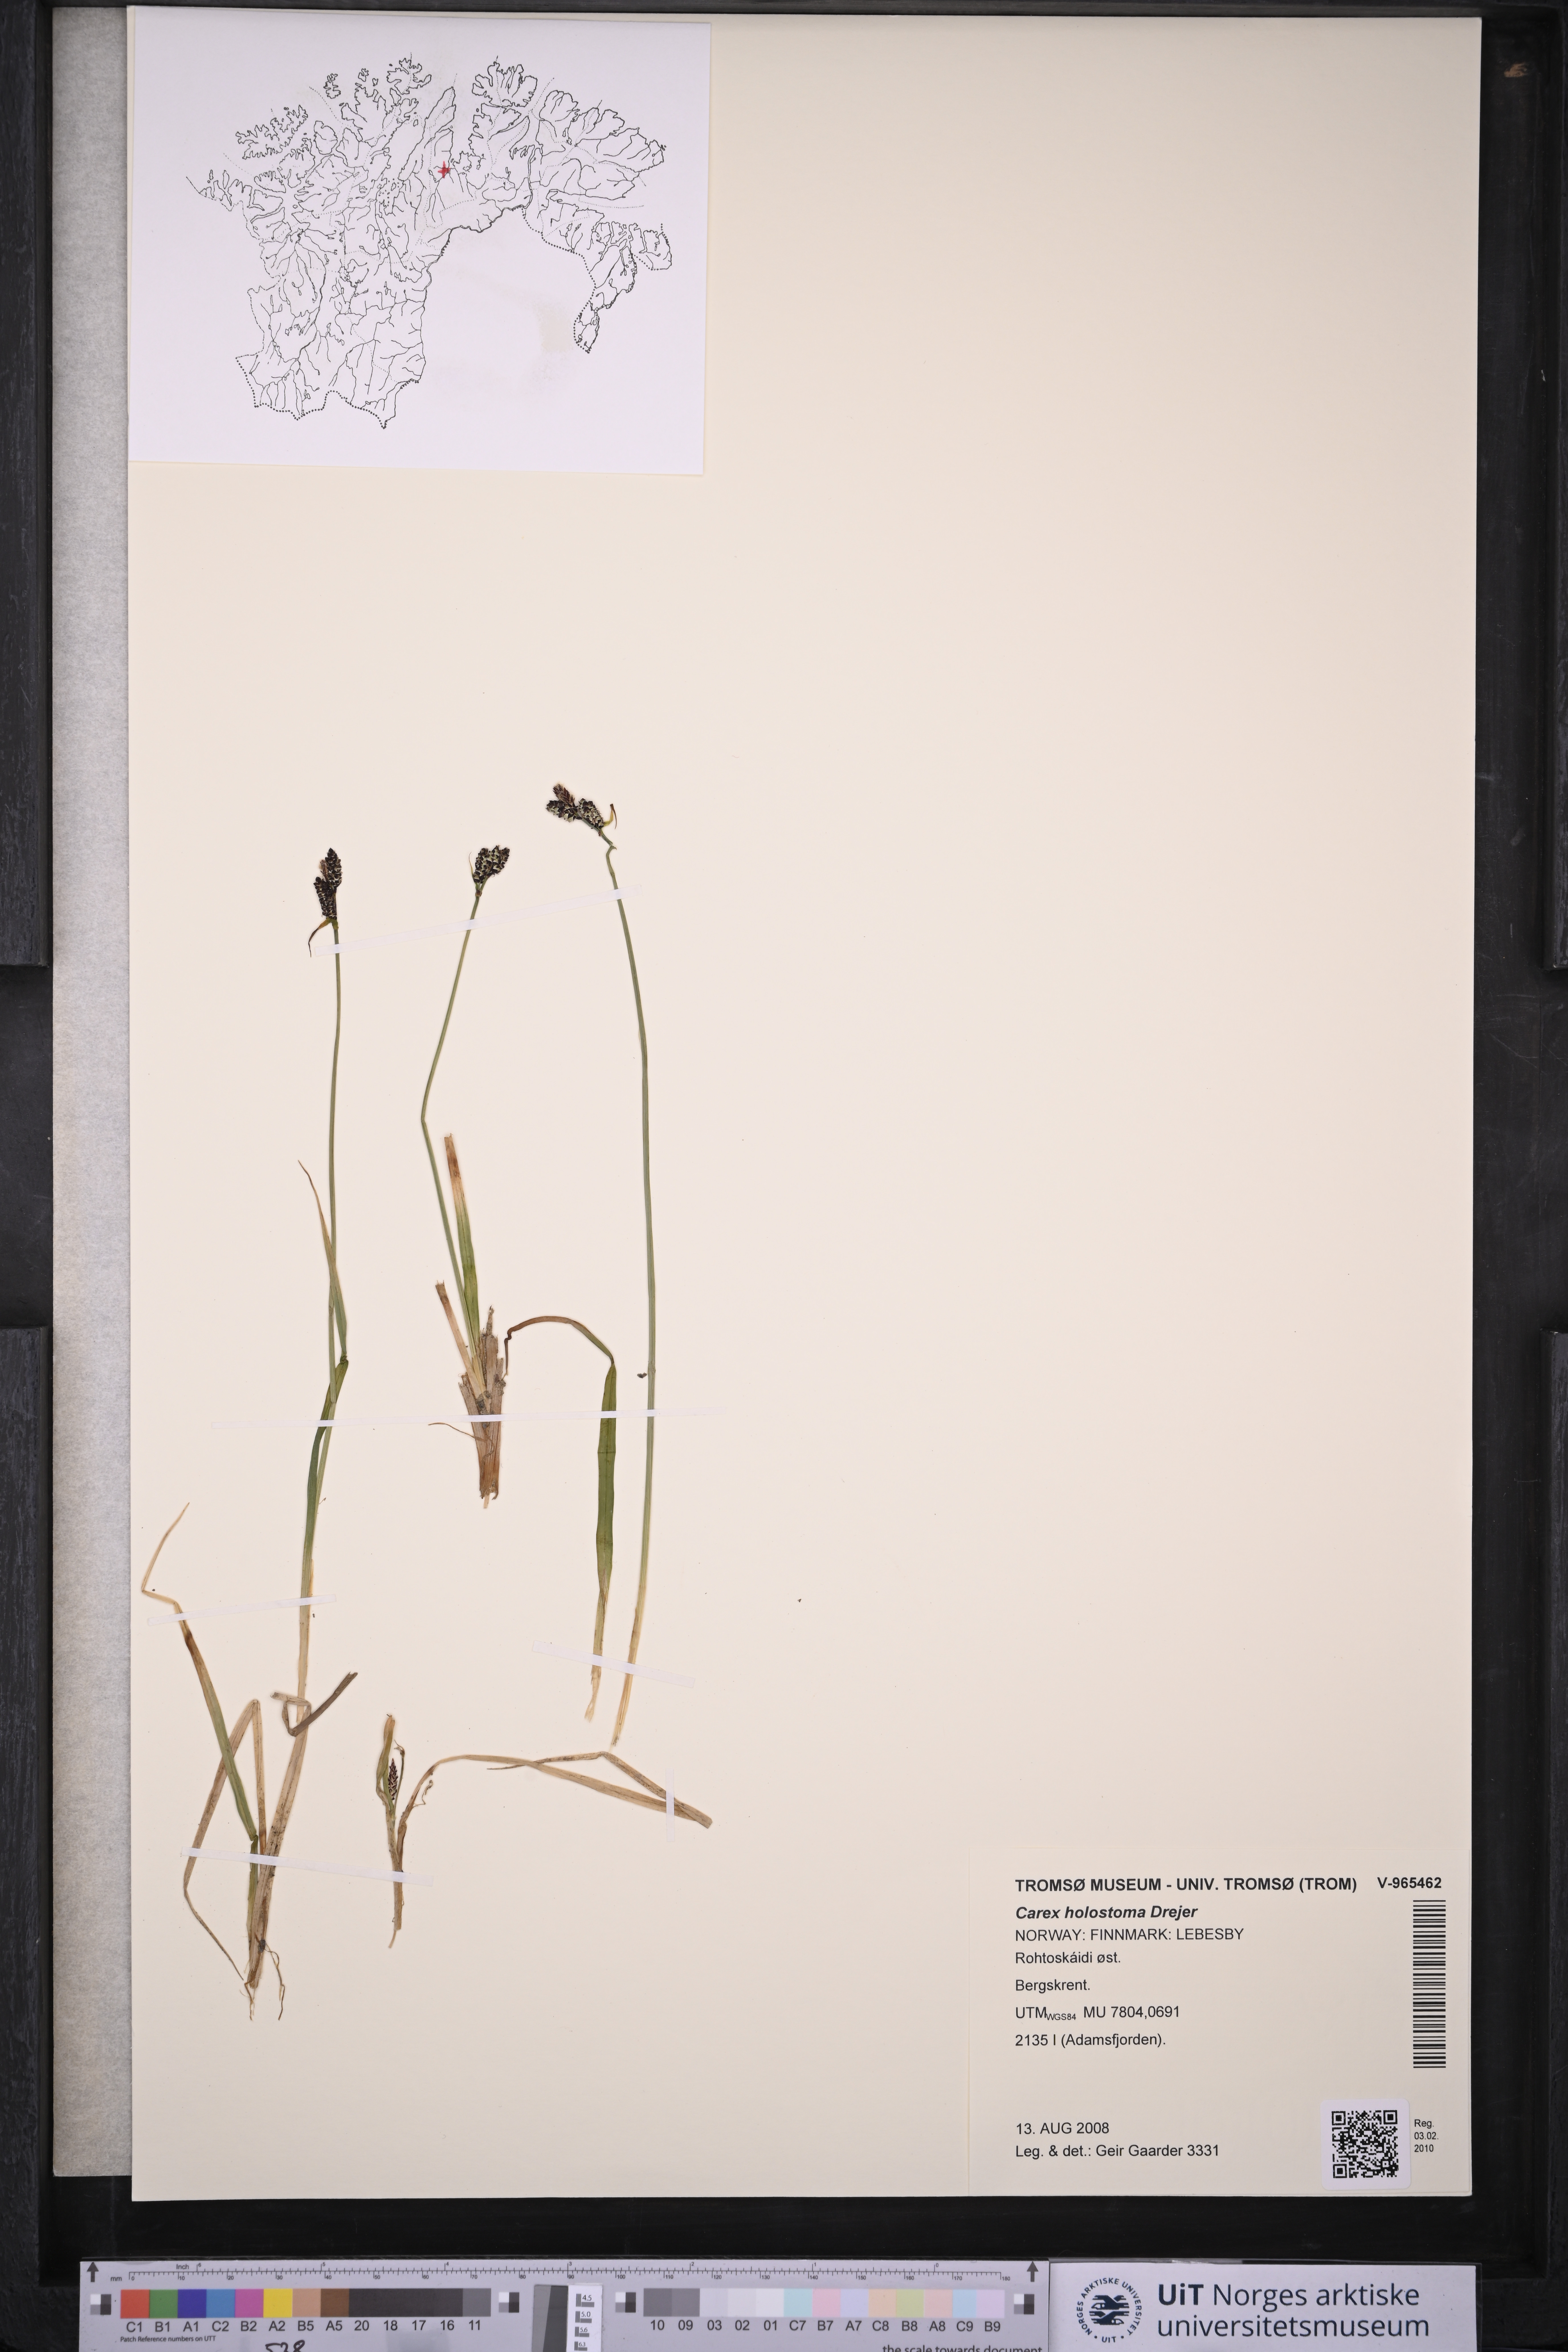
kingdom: Plantae
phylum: Tracheophyta
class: Liliopsida
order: Poales
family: Cyperaceae
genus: Carex
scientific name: Carex holostoma
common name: Arctic marsh sedge
